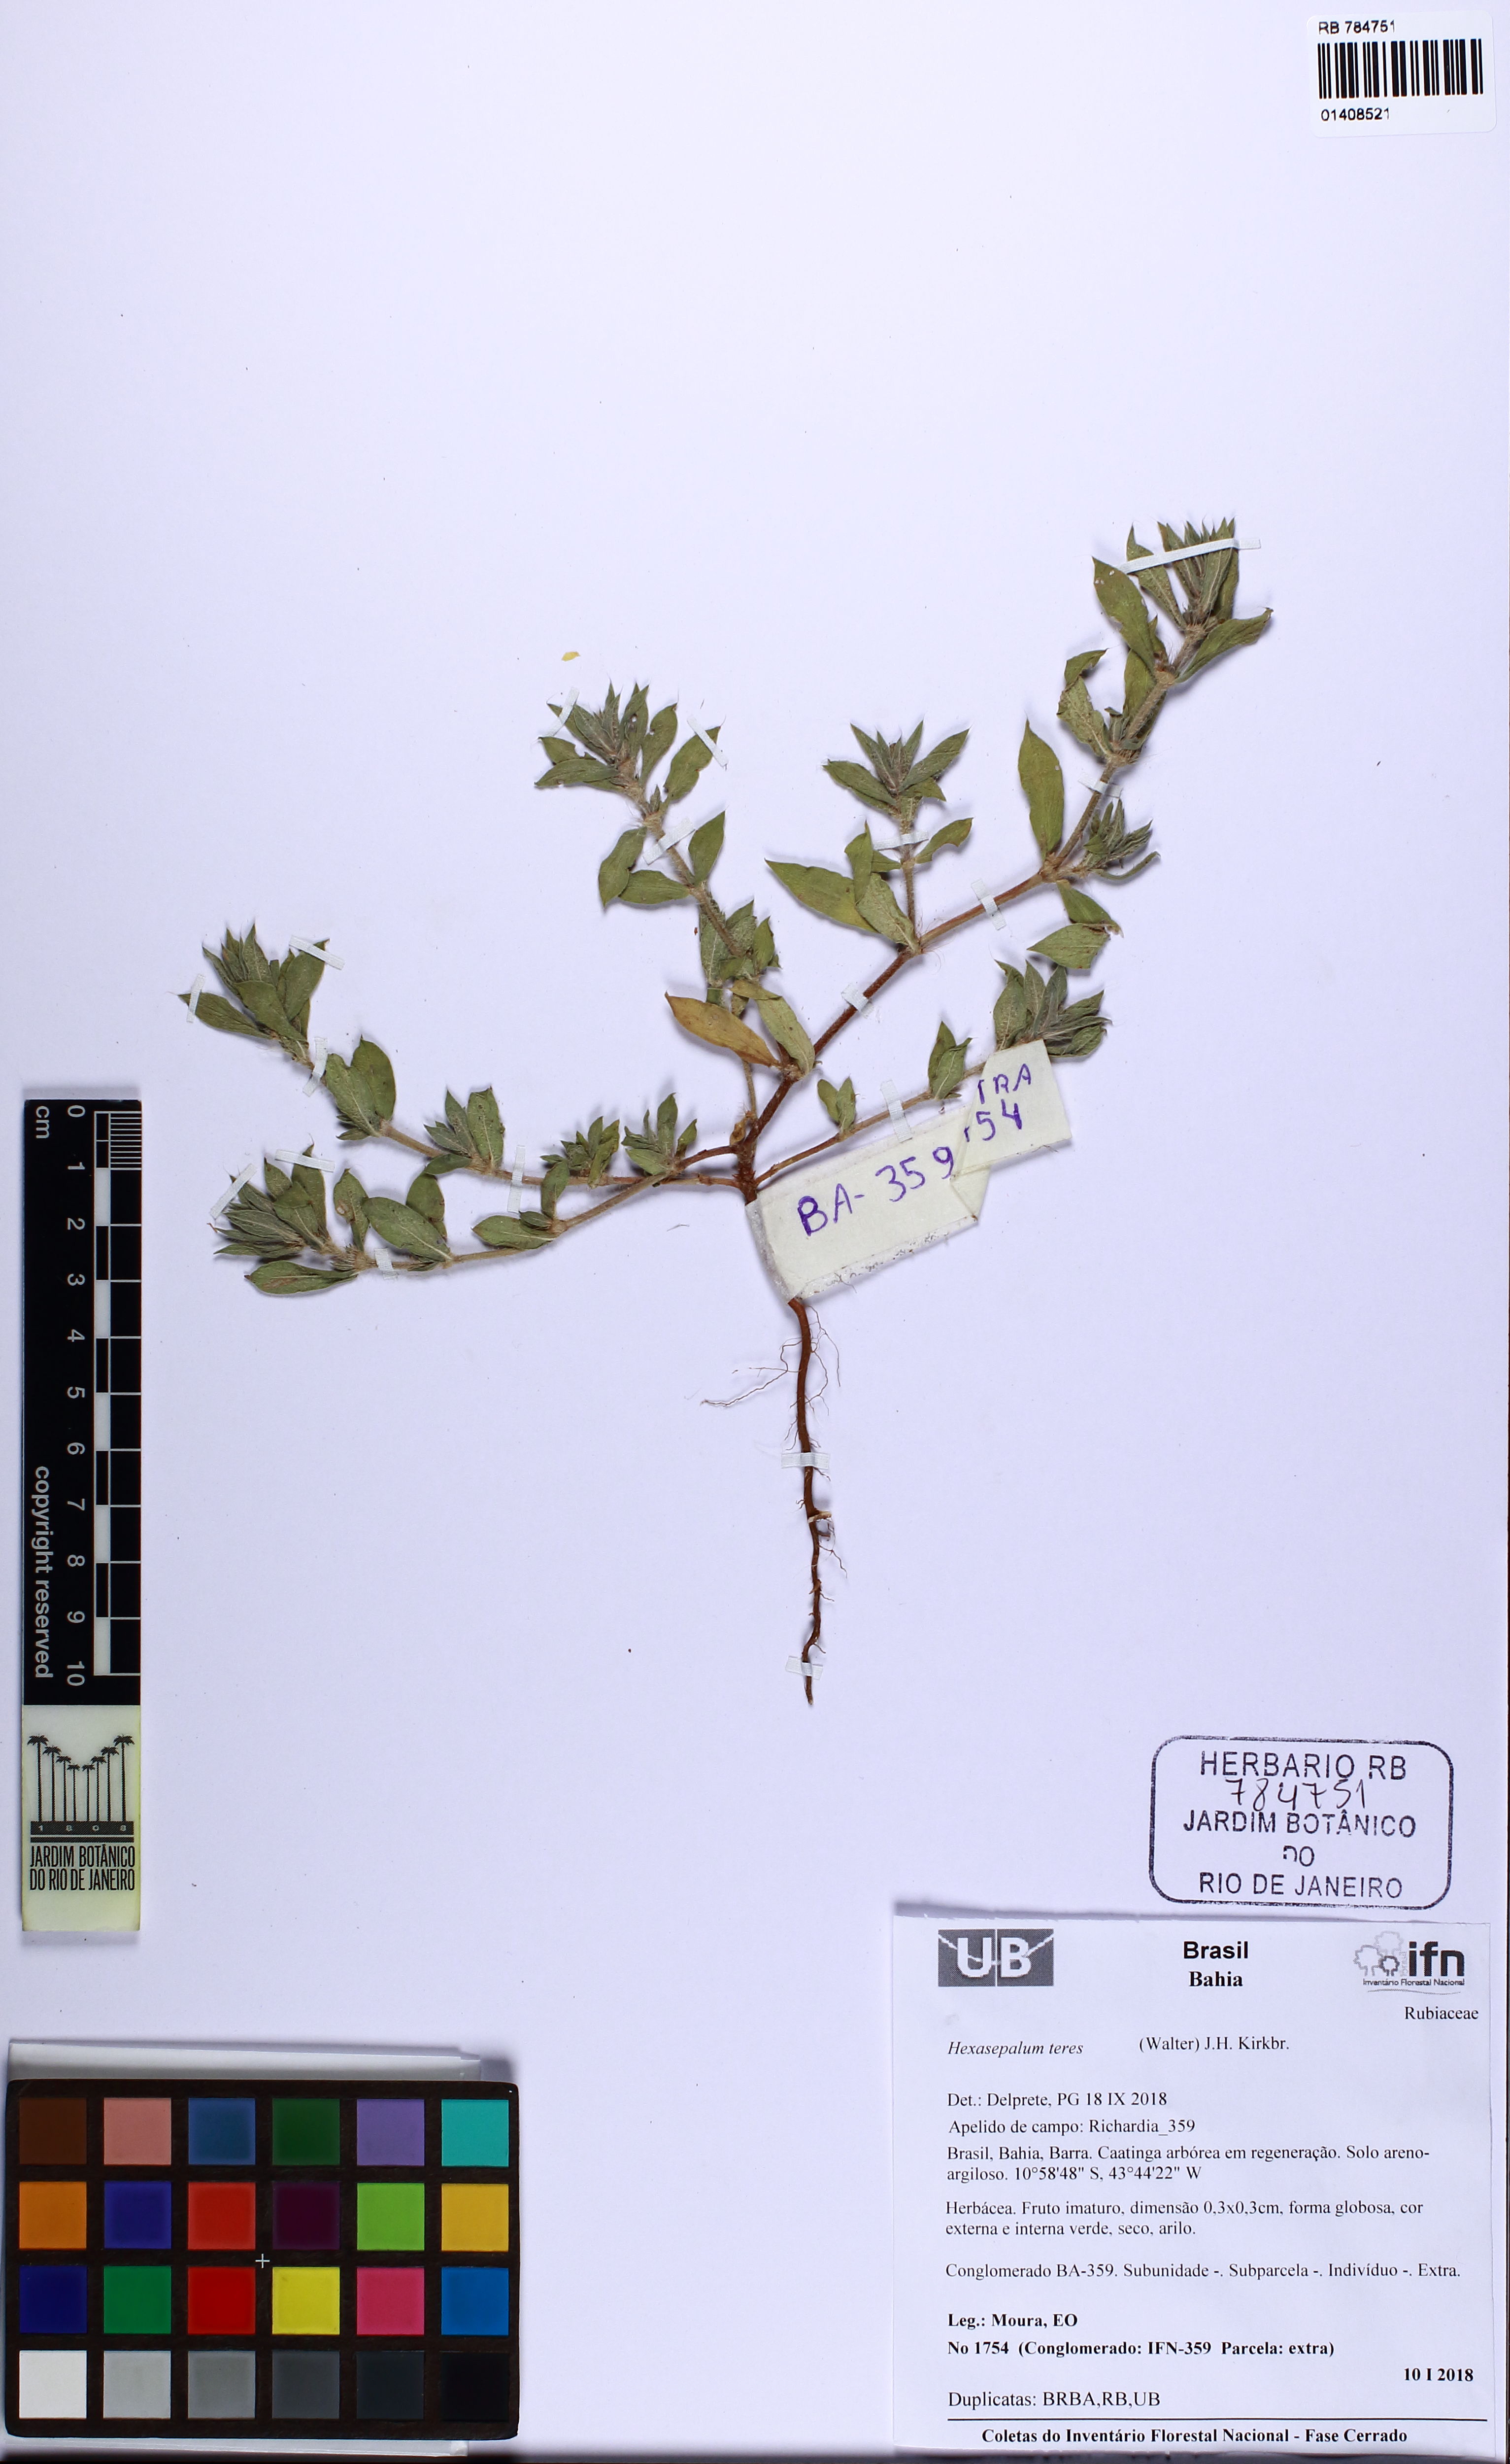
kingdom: Plantae
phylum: Tracheophyta
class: Magnoliopsida
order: Gentianales
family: Rubiaceae
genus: Hexasepalum
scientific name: Hexasepalum teres
